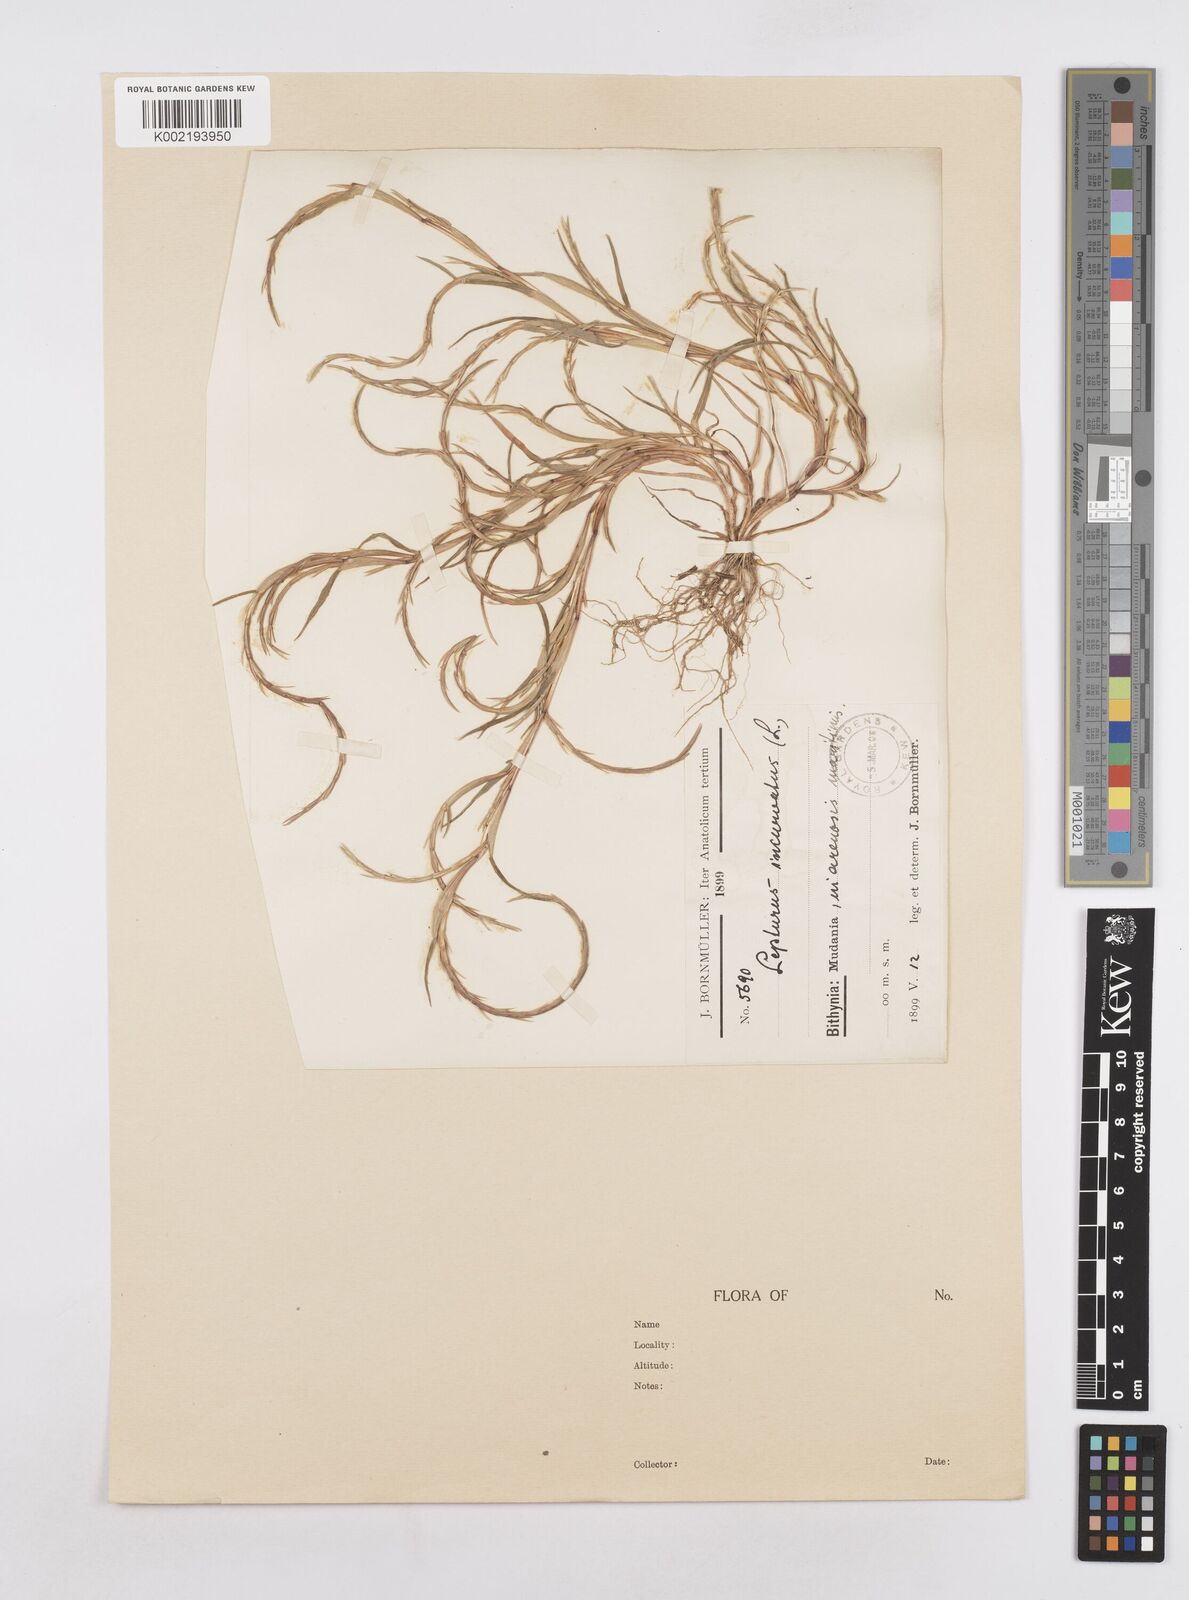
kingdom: Plantae
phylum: Tracheophyta
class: Liliopsida
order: Poales
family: Poaceae
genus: Parapholis
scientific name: Parapholis incurva
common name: Curved sicklegrass
